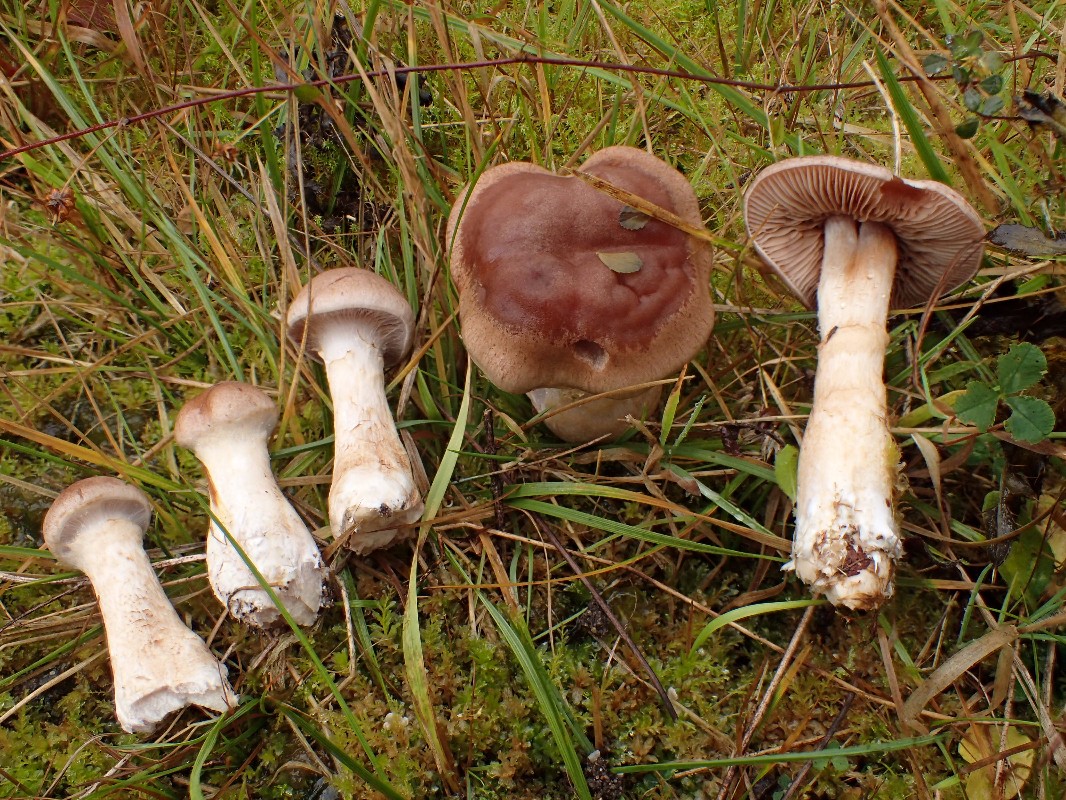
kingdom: Fungi
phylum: Basidiomycota
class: Agaricomycetes
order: Agaricales
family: Cortinariaceae
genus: Cortinarius
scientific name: Cortinarius caninus
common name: gran-slørhat
